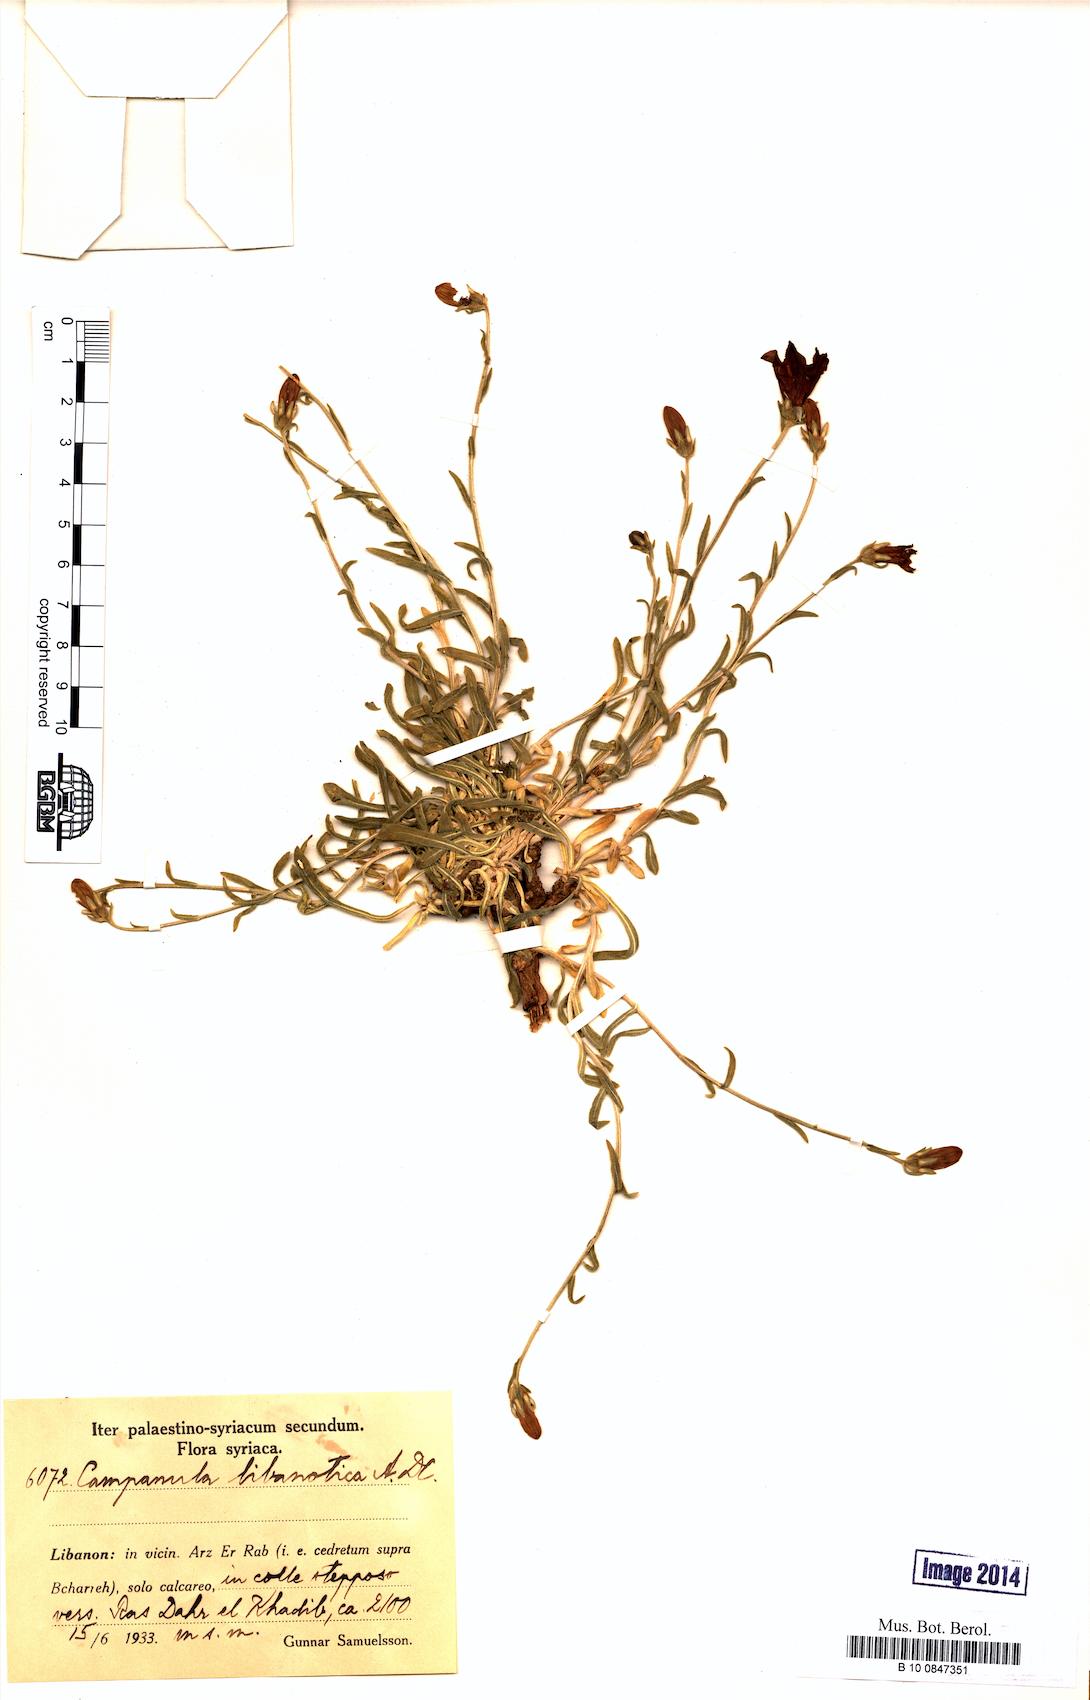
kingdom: Plantae
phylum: Tracheophyta
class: Magnoliopsida
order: Asterales
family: Campanulaceae
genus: Campanula
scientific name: Campanula stricta
